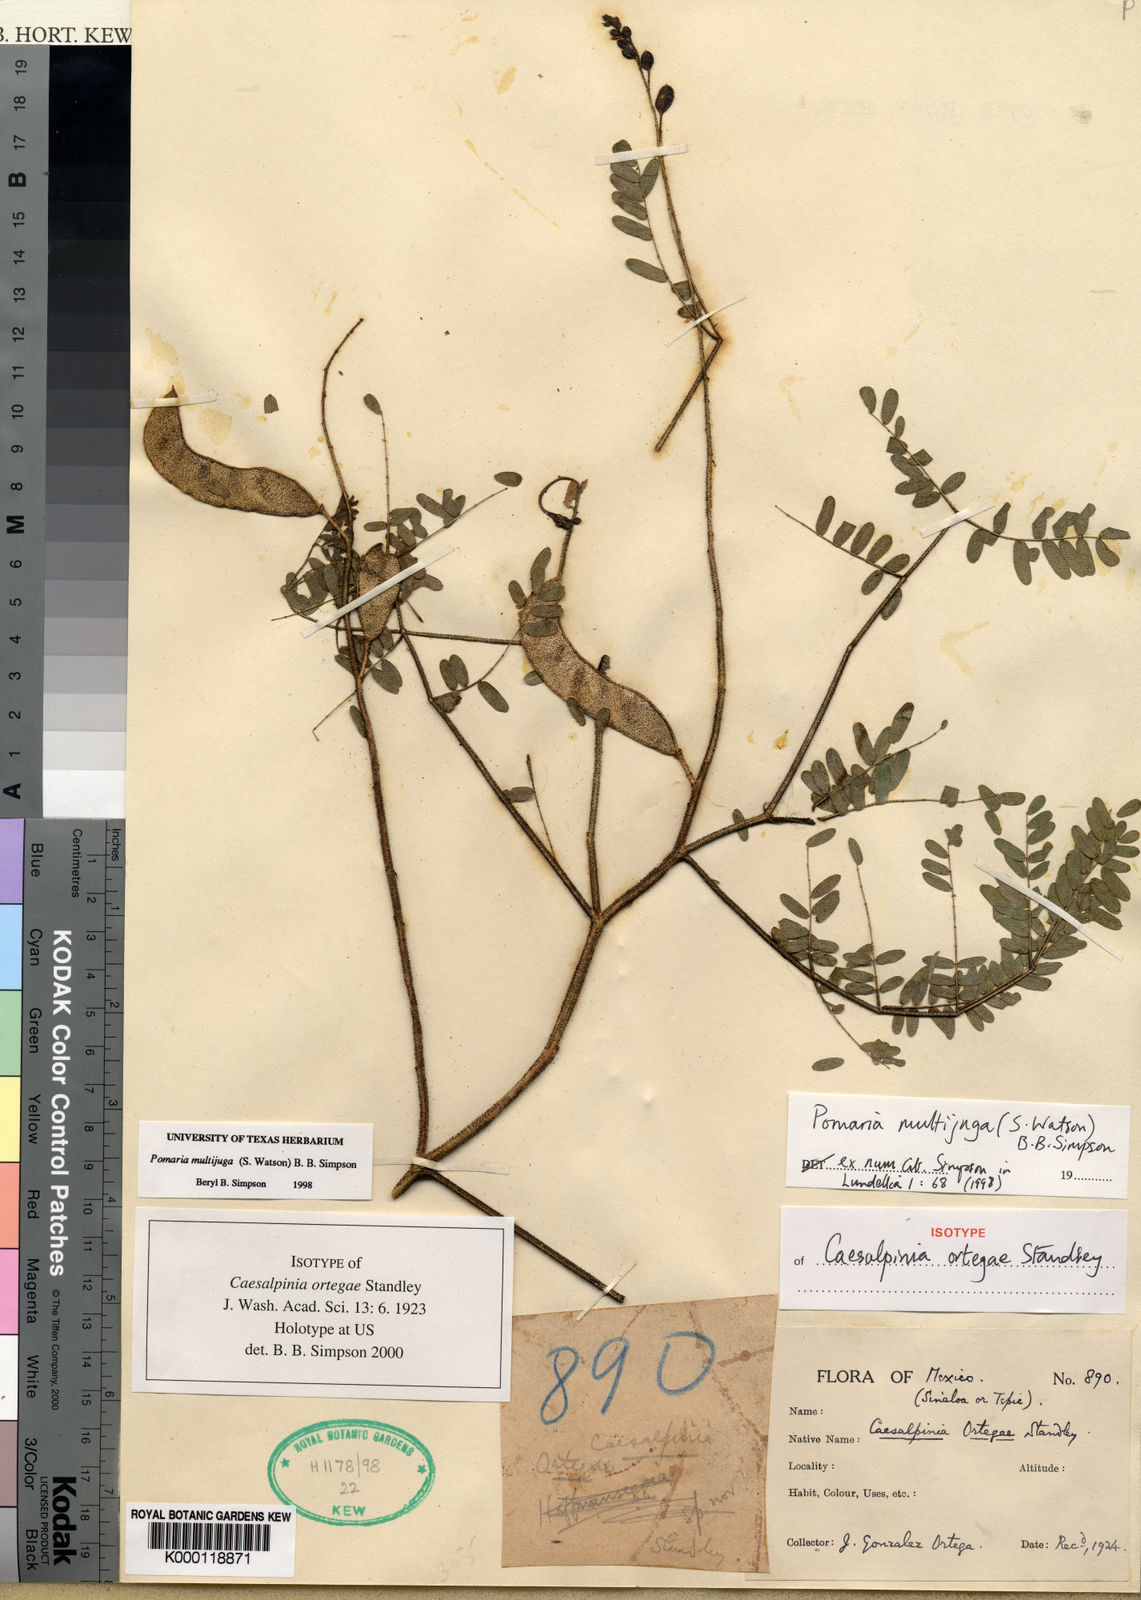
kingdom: Plantae
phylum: Tracheophyta
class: Magnoliopsida
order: Fabales
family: Fabaceae
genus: Pomaria
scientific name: Pomaria multijuga
